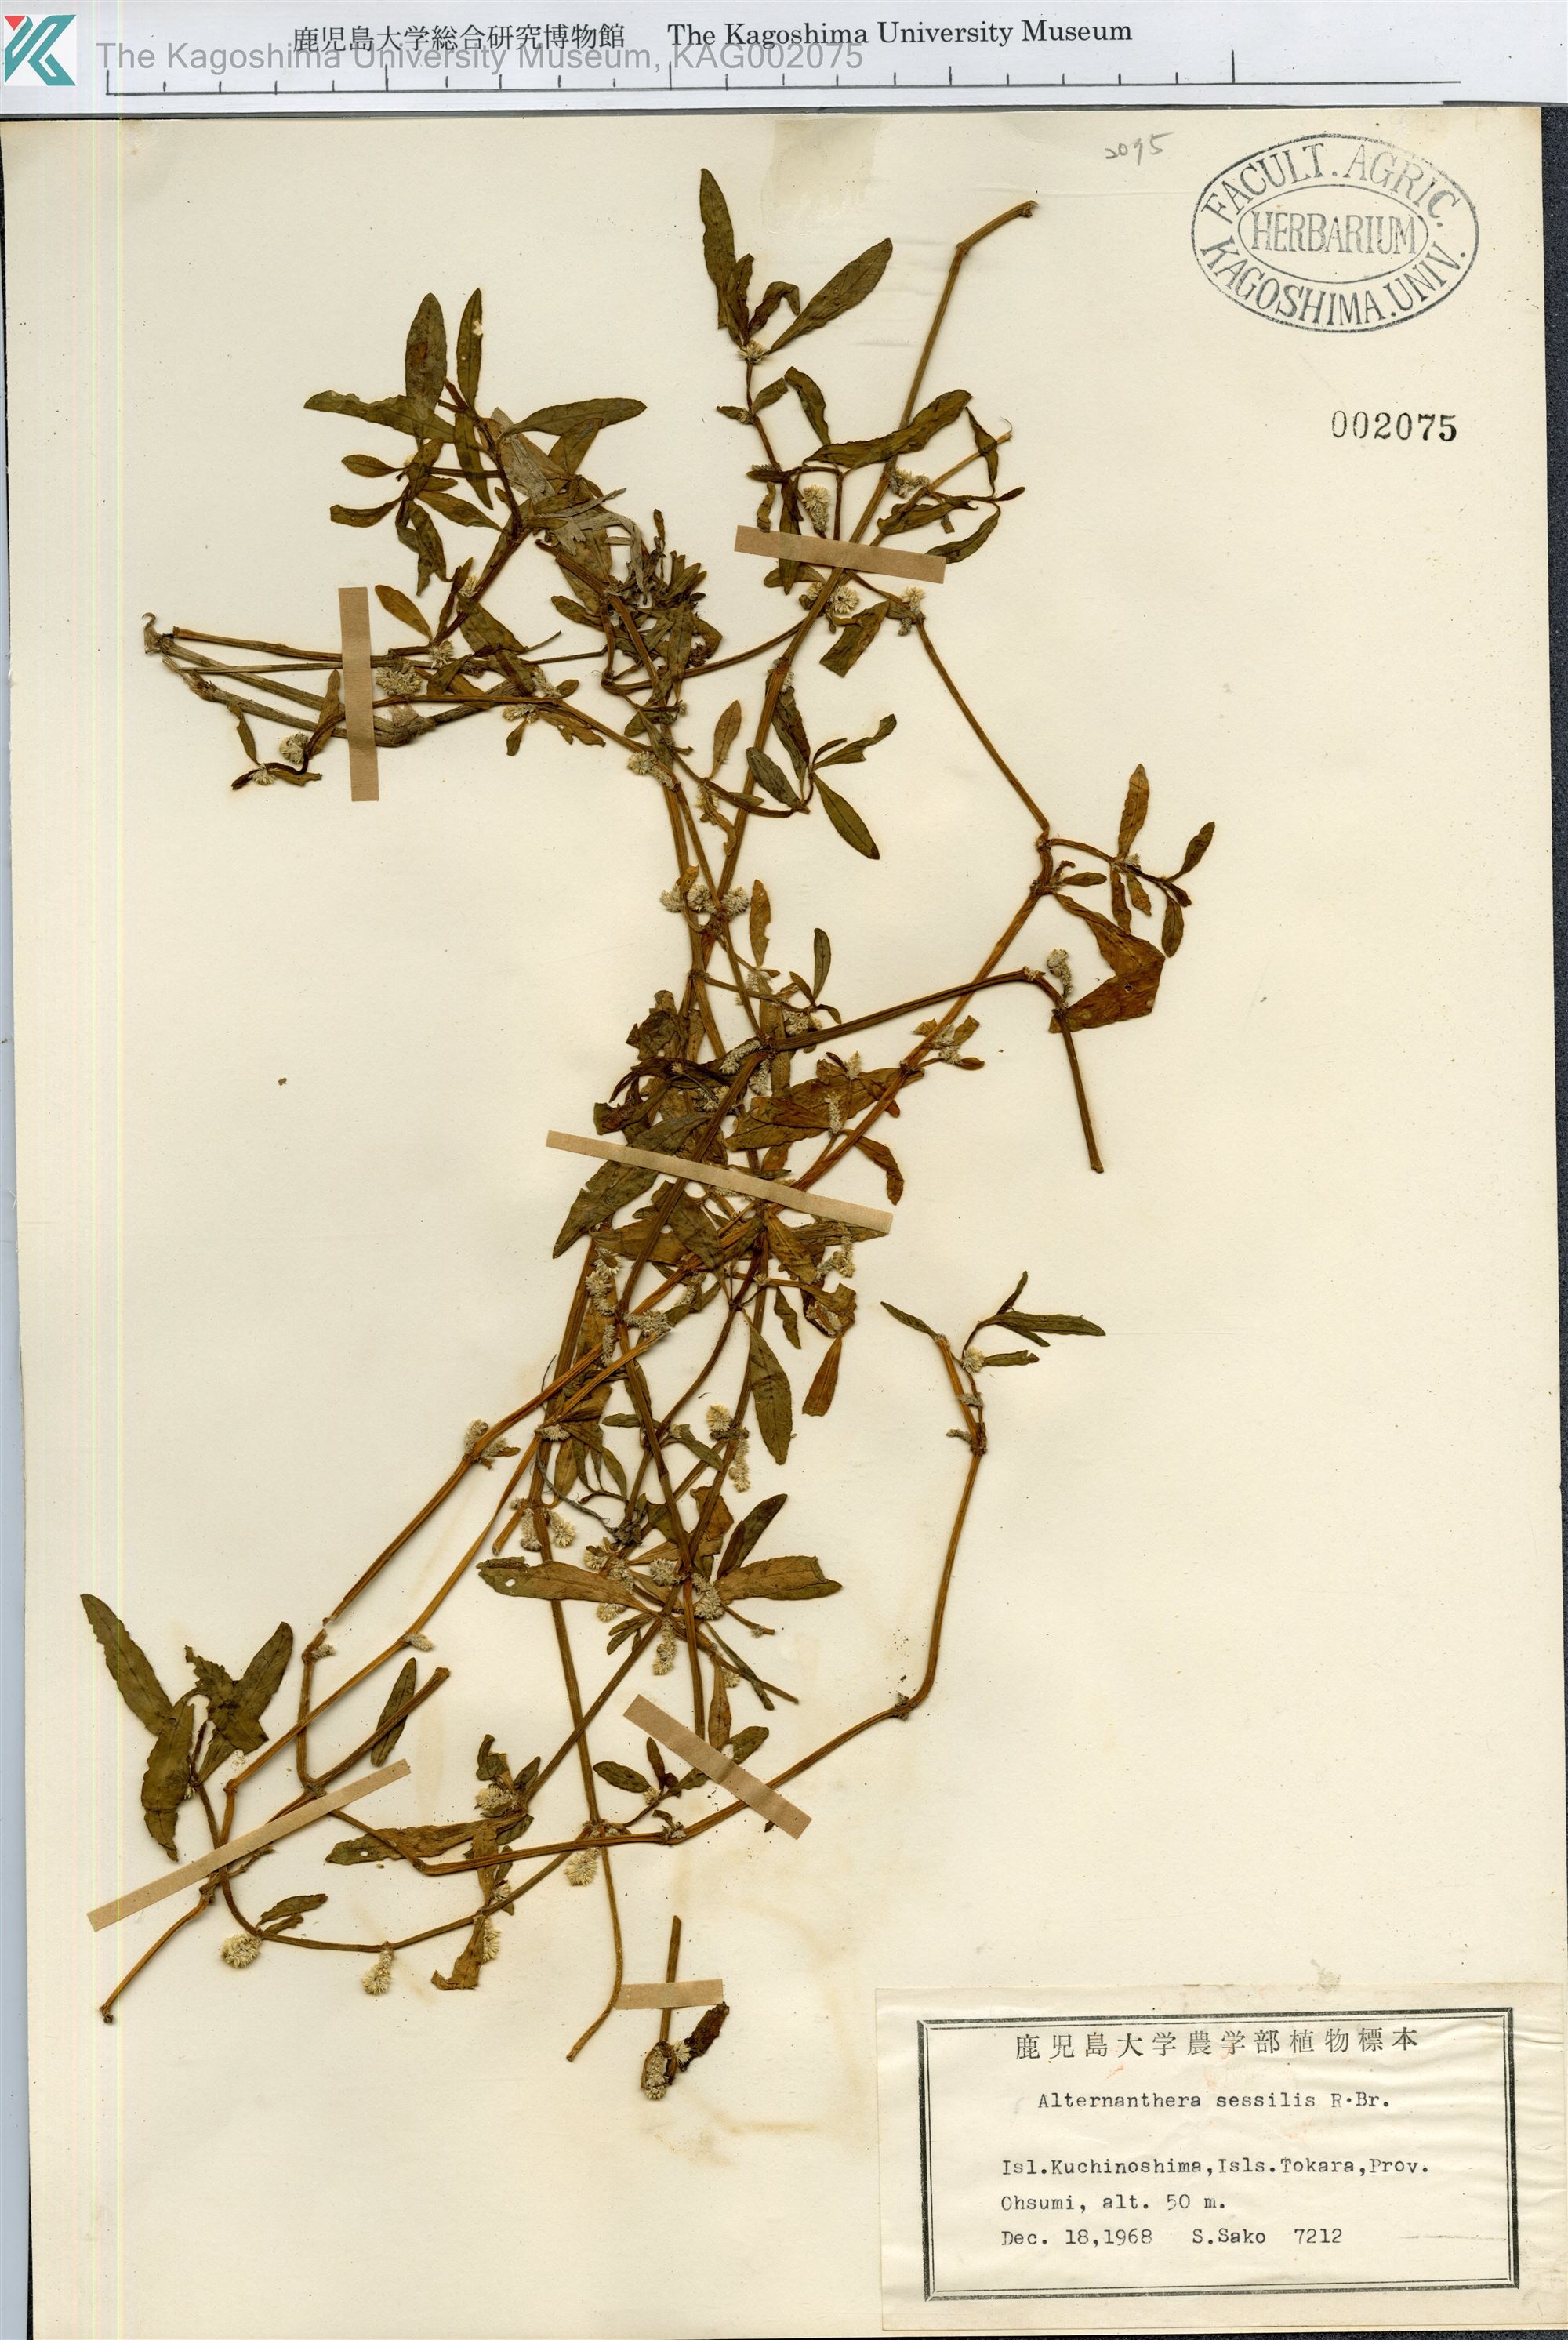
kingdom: Plantae
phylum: Tracheophyta
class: Magnoliopsida
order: Caryophyllales
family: Amaranthaceae
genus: Alternanthera
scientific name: Alternanthera sessilis
